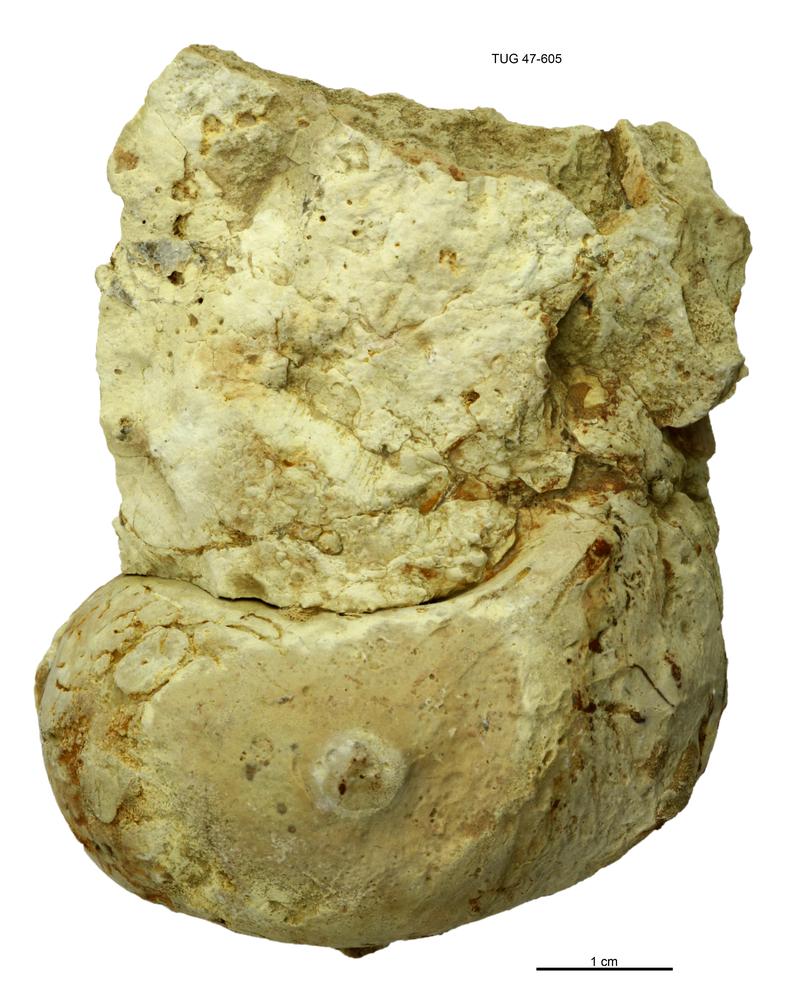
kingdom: Animalia
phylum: Mollusca
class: Gastropoda
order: Pleurotomariida
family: Murchisoniidae
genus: Murchisonia
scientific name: Murchisonia insignis
